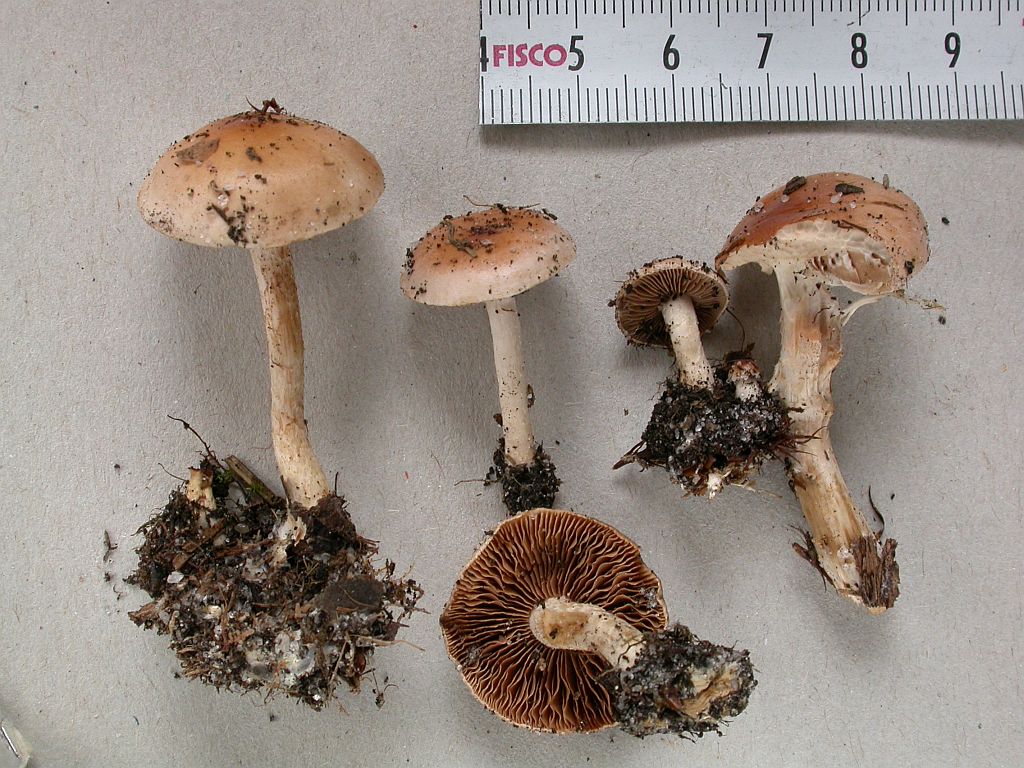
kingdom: Fungi
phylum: Basidiomycota
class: Agaricomycetes
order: Agaricales
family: Hymenogastraceae
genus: Hebeloma
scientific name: Hebeloma birrus
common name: rodslående tåreblad
